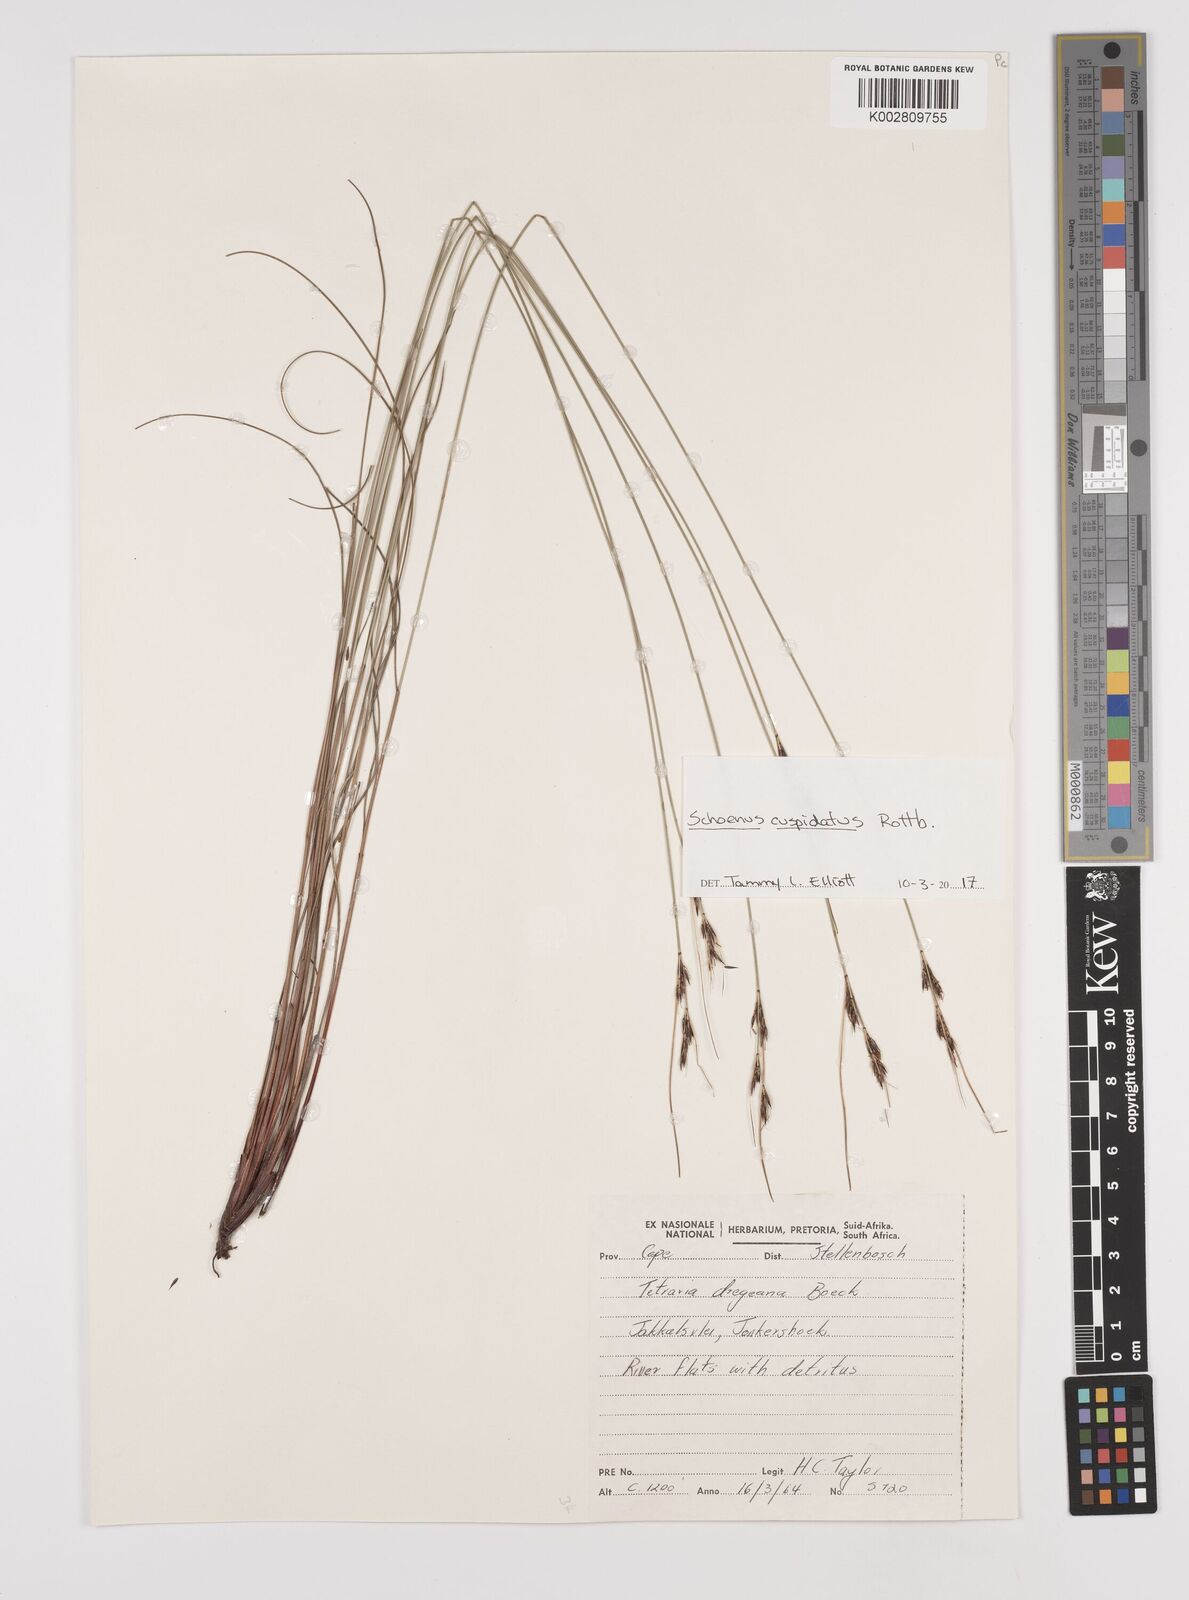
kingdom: Plantae
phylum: Tracheophyta
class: Liliopsida
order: Poales
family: Cyperaceae
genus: Schoenus
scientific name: Schoenus cuspidatus
